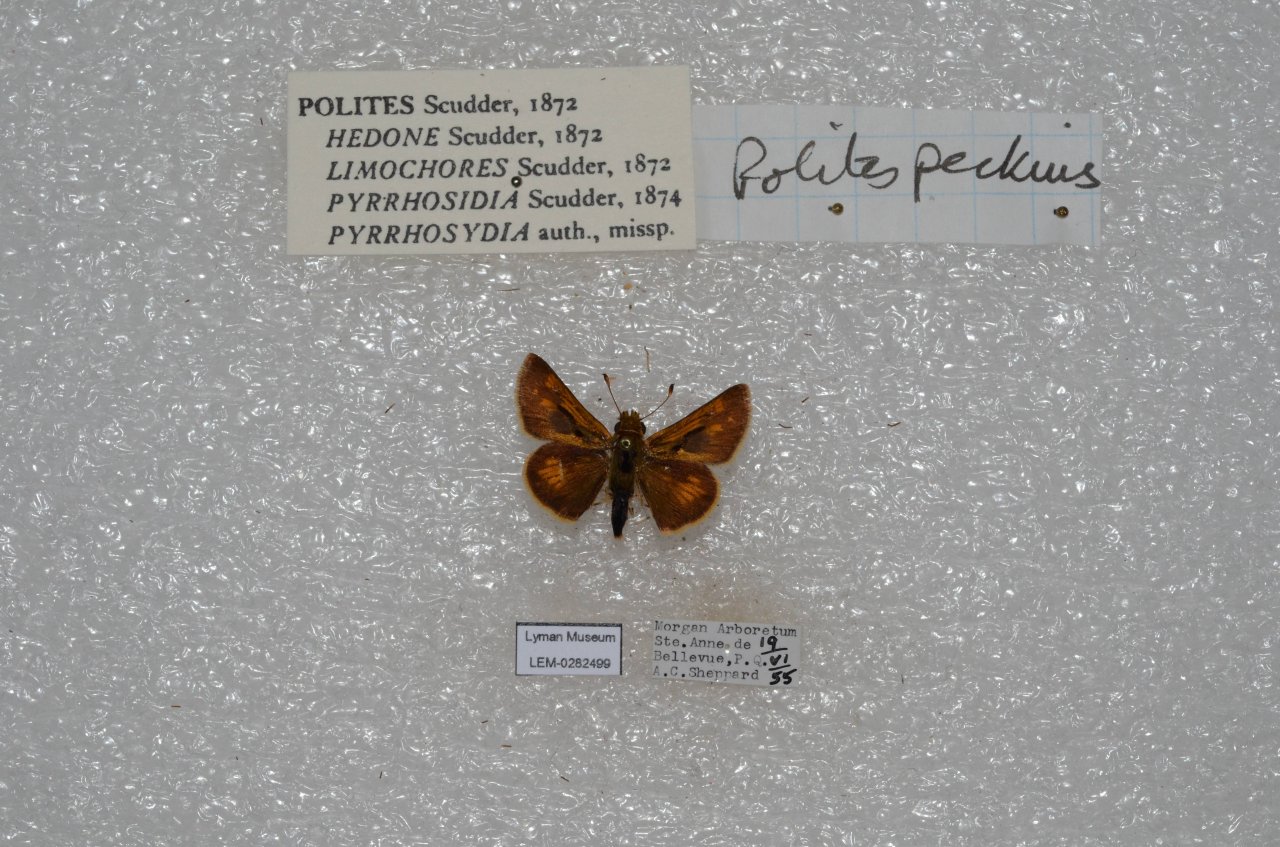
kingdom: Animalia
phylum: Arthropoda
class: Insecta
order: Lepidoptera
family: Hesperiidae
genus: Polites
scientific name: Polites coras
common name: Peck's Skipper
